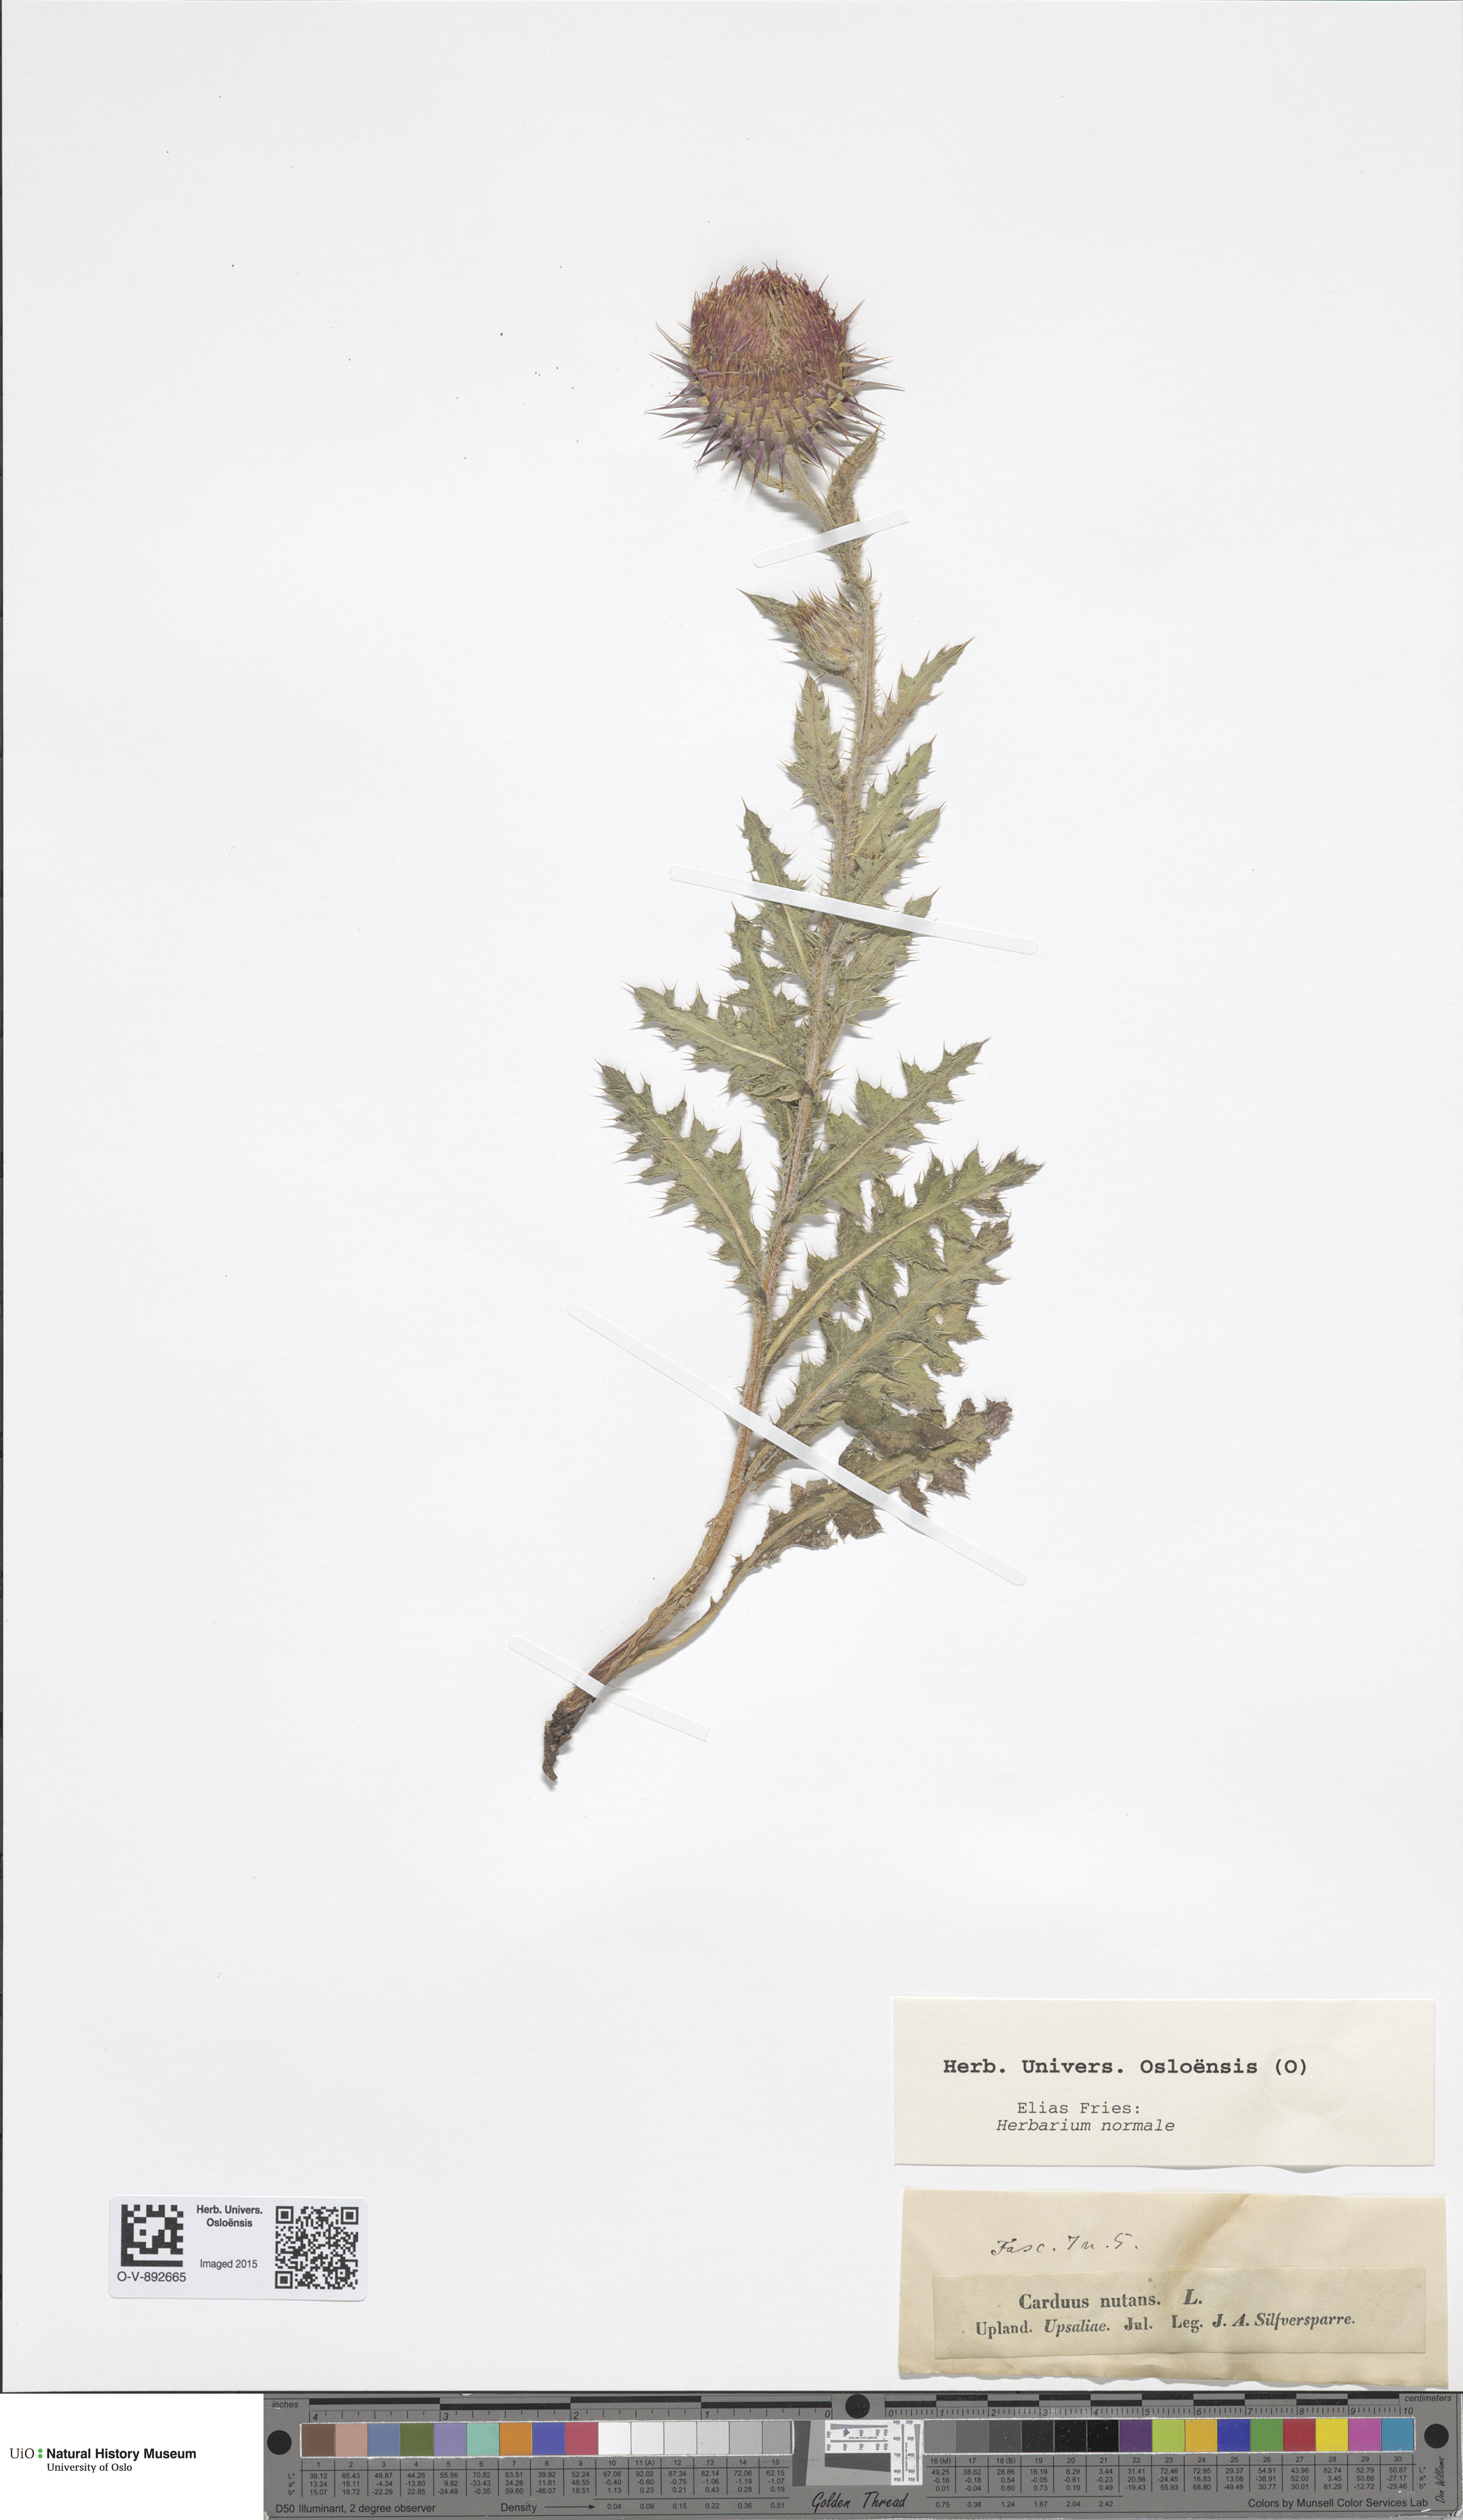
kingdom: Plantae
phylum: Tracheophyta
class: Magnoliopsida
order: Asterales
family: Asteraceae
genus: Carduus
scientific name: Carduus nutans
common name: Musk thistle
